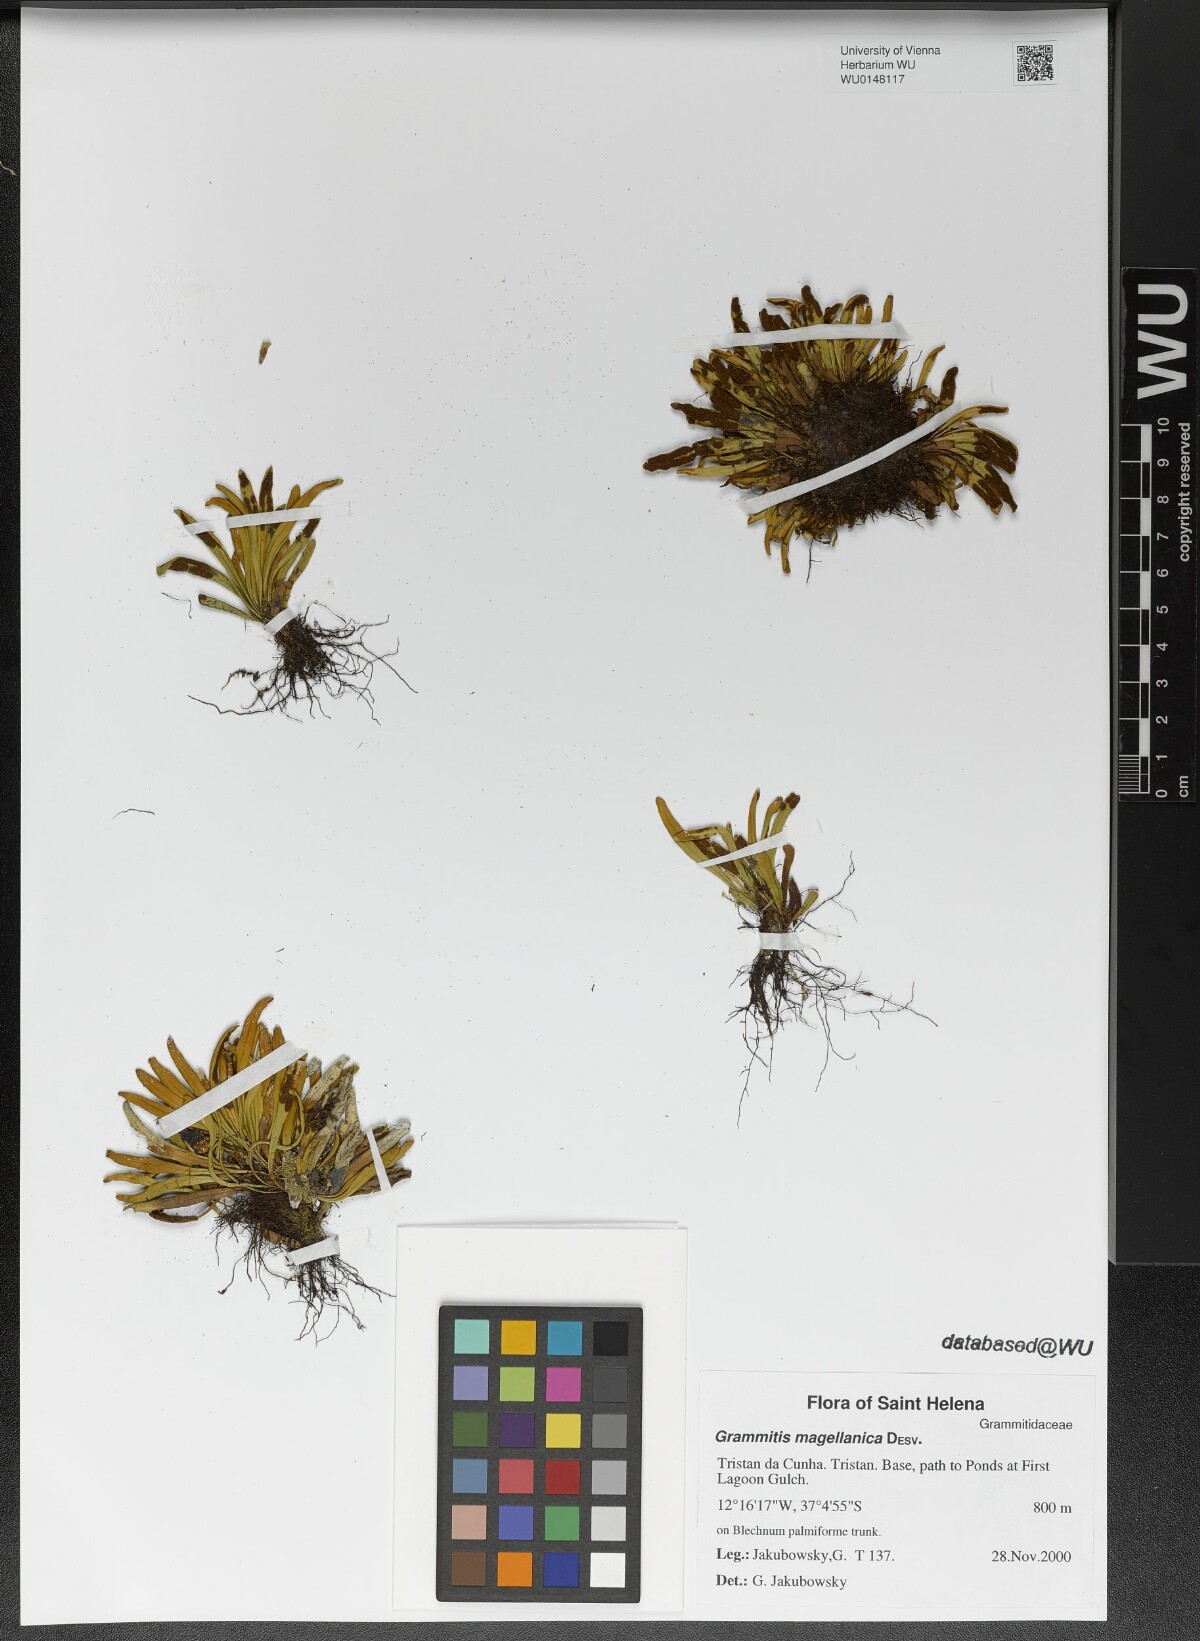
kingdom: Plantae
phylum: Tracheophyta
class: Polypodiopsida
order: Polypodiales
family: Polypodiaceae
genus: Notogrammitis
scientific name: Notogrammitis angustifolia
